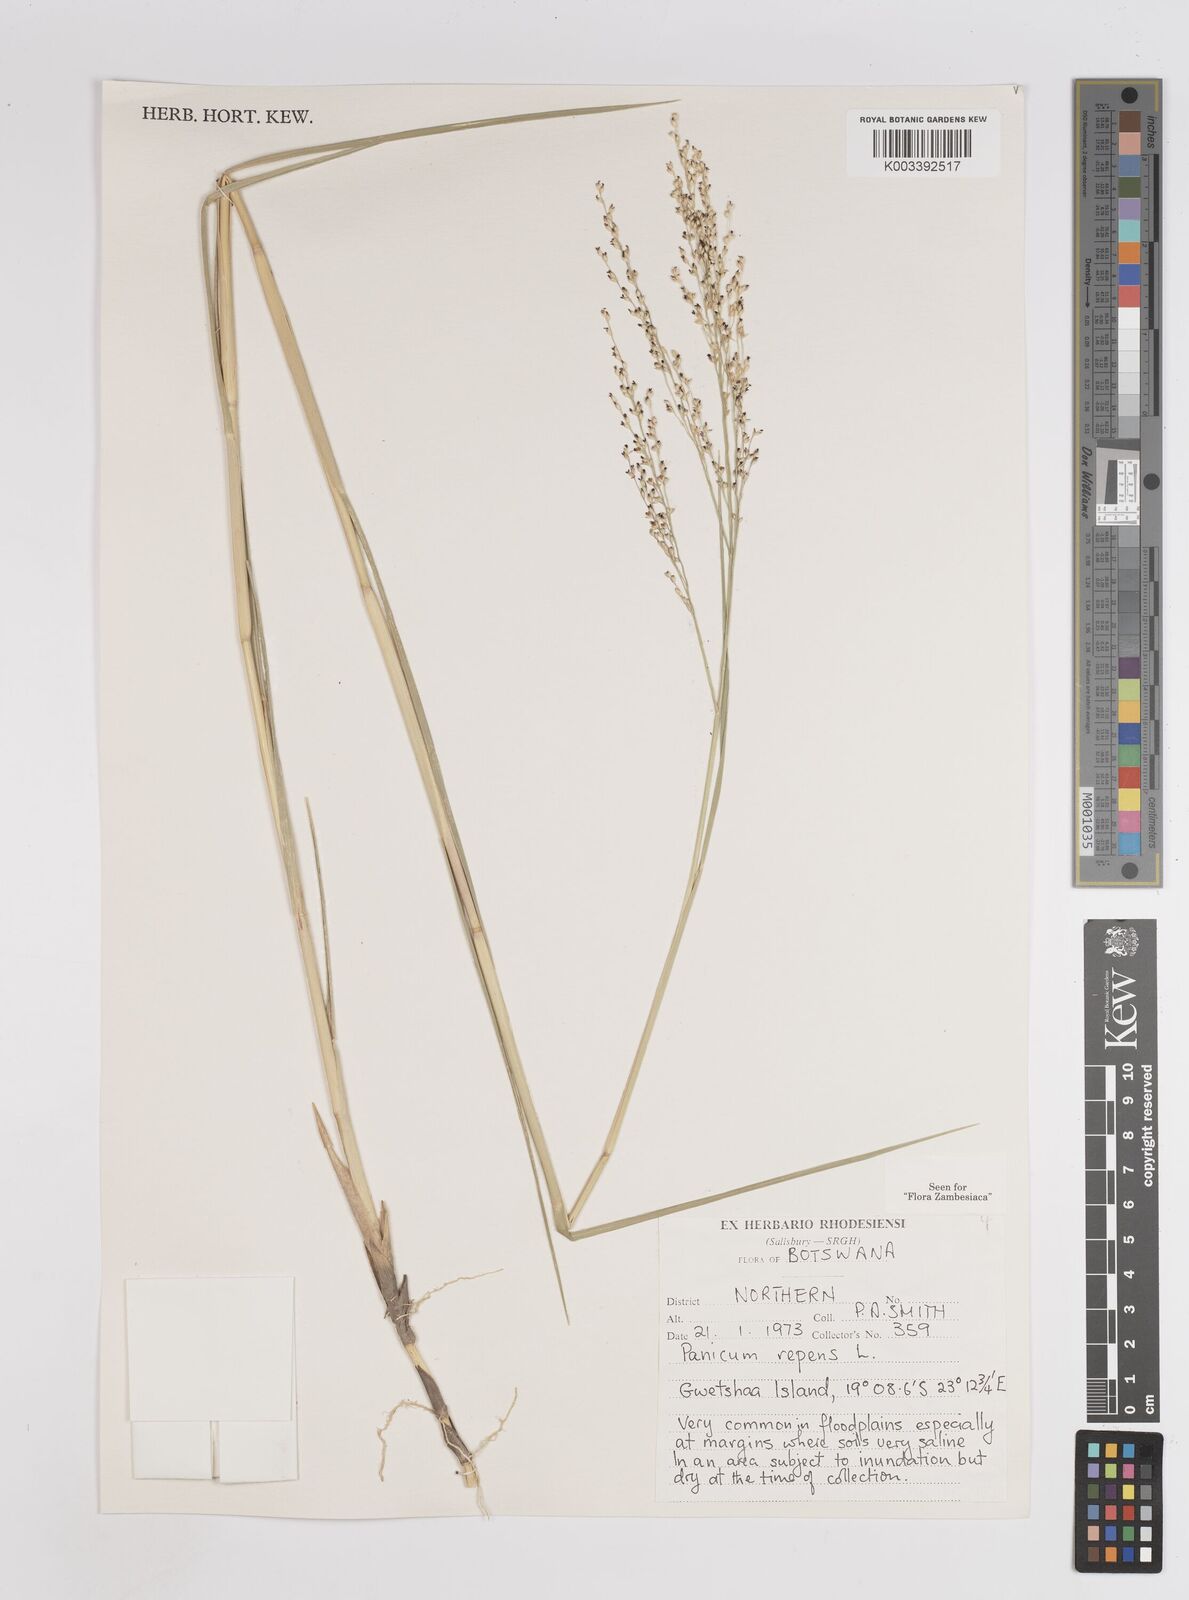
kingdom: Plantae
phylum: Tracheophyta
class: Liliopsida
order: Poales
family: Poaceae
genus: Panicum
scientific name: Panicum repens
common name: Torpedo grass
